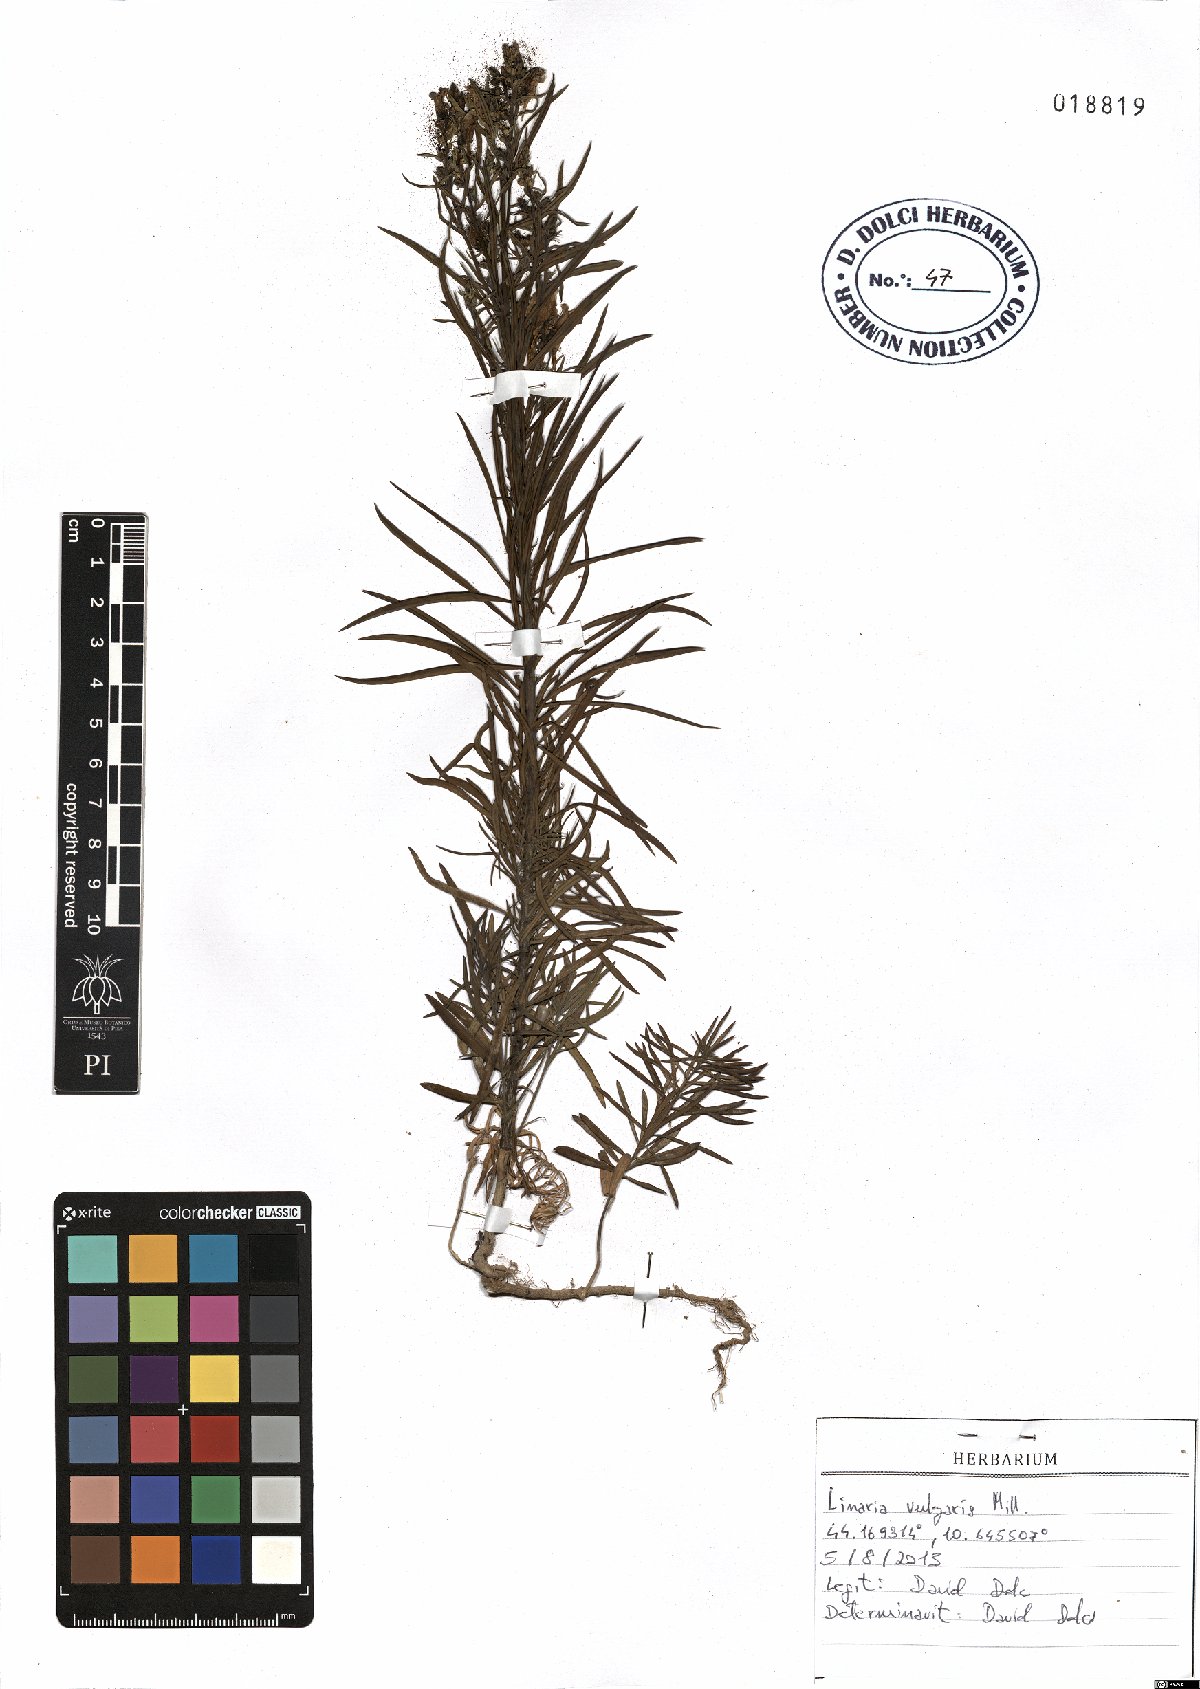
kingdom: Plantae
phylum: Tracheophyta
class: Magnoliopsida
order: Lamiales
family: Plantaginaceae
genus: Linaria
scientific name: Linaria vulgaris
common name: Butter and eggs
